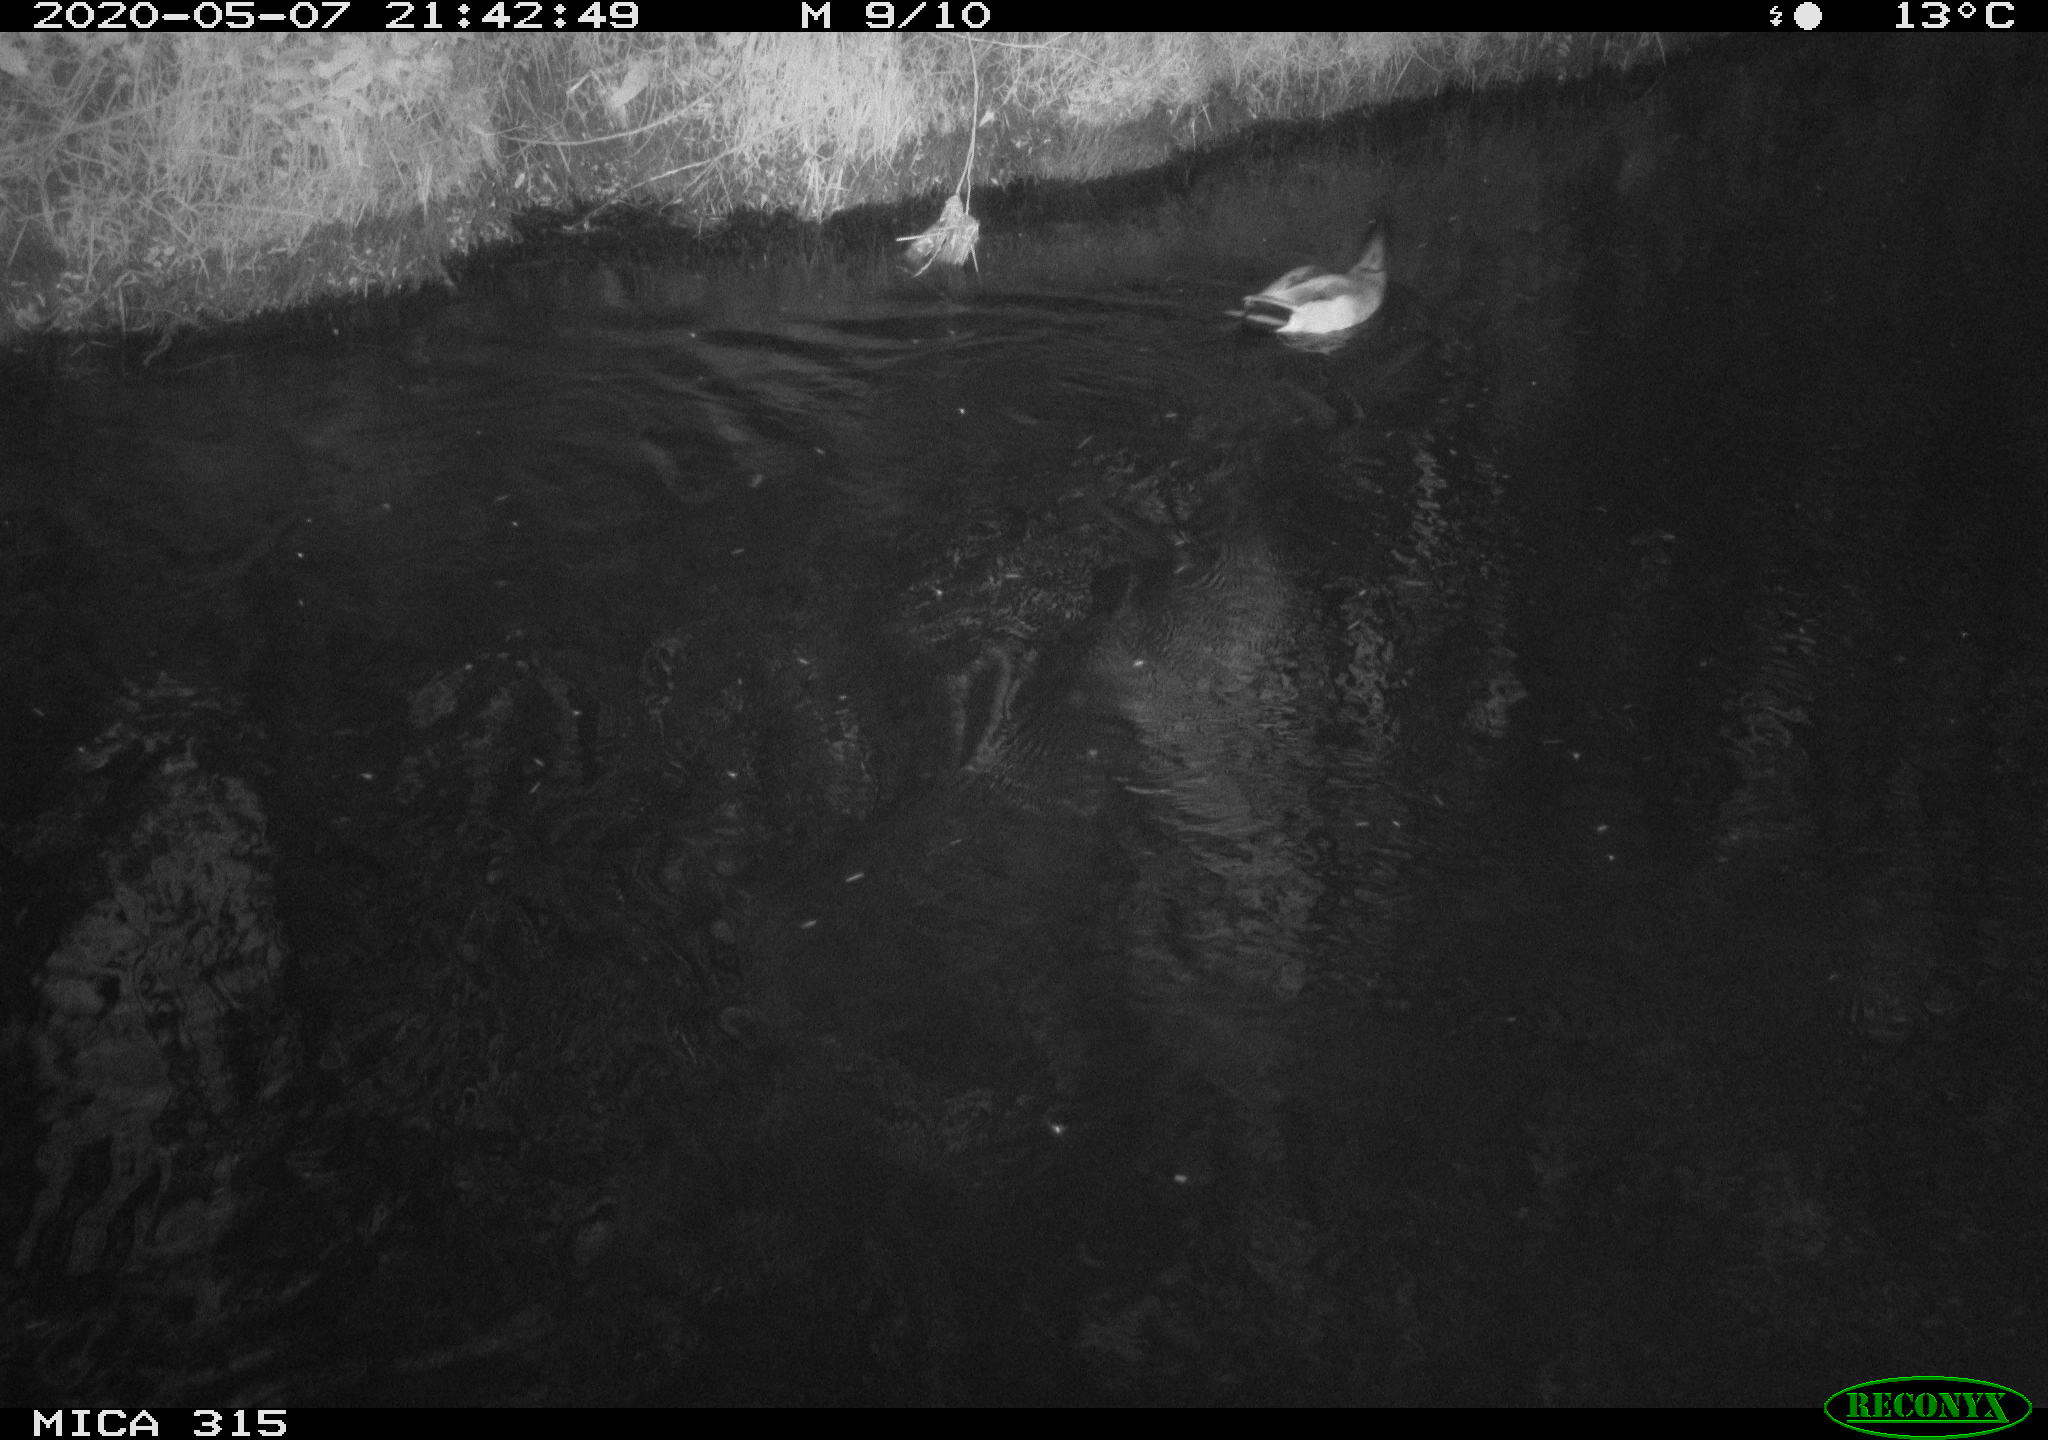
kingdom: Animalia
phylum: Chordata
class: Aves
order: Anseriformes
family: Anatidae
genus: Anas
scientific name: Anas platyrhynchos
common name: Mallard
